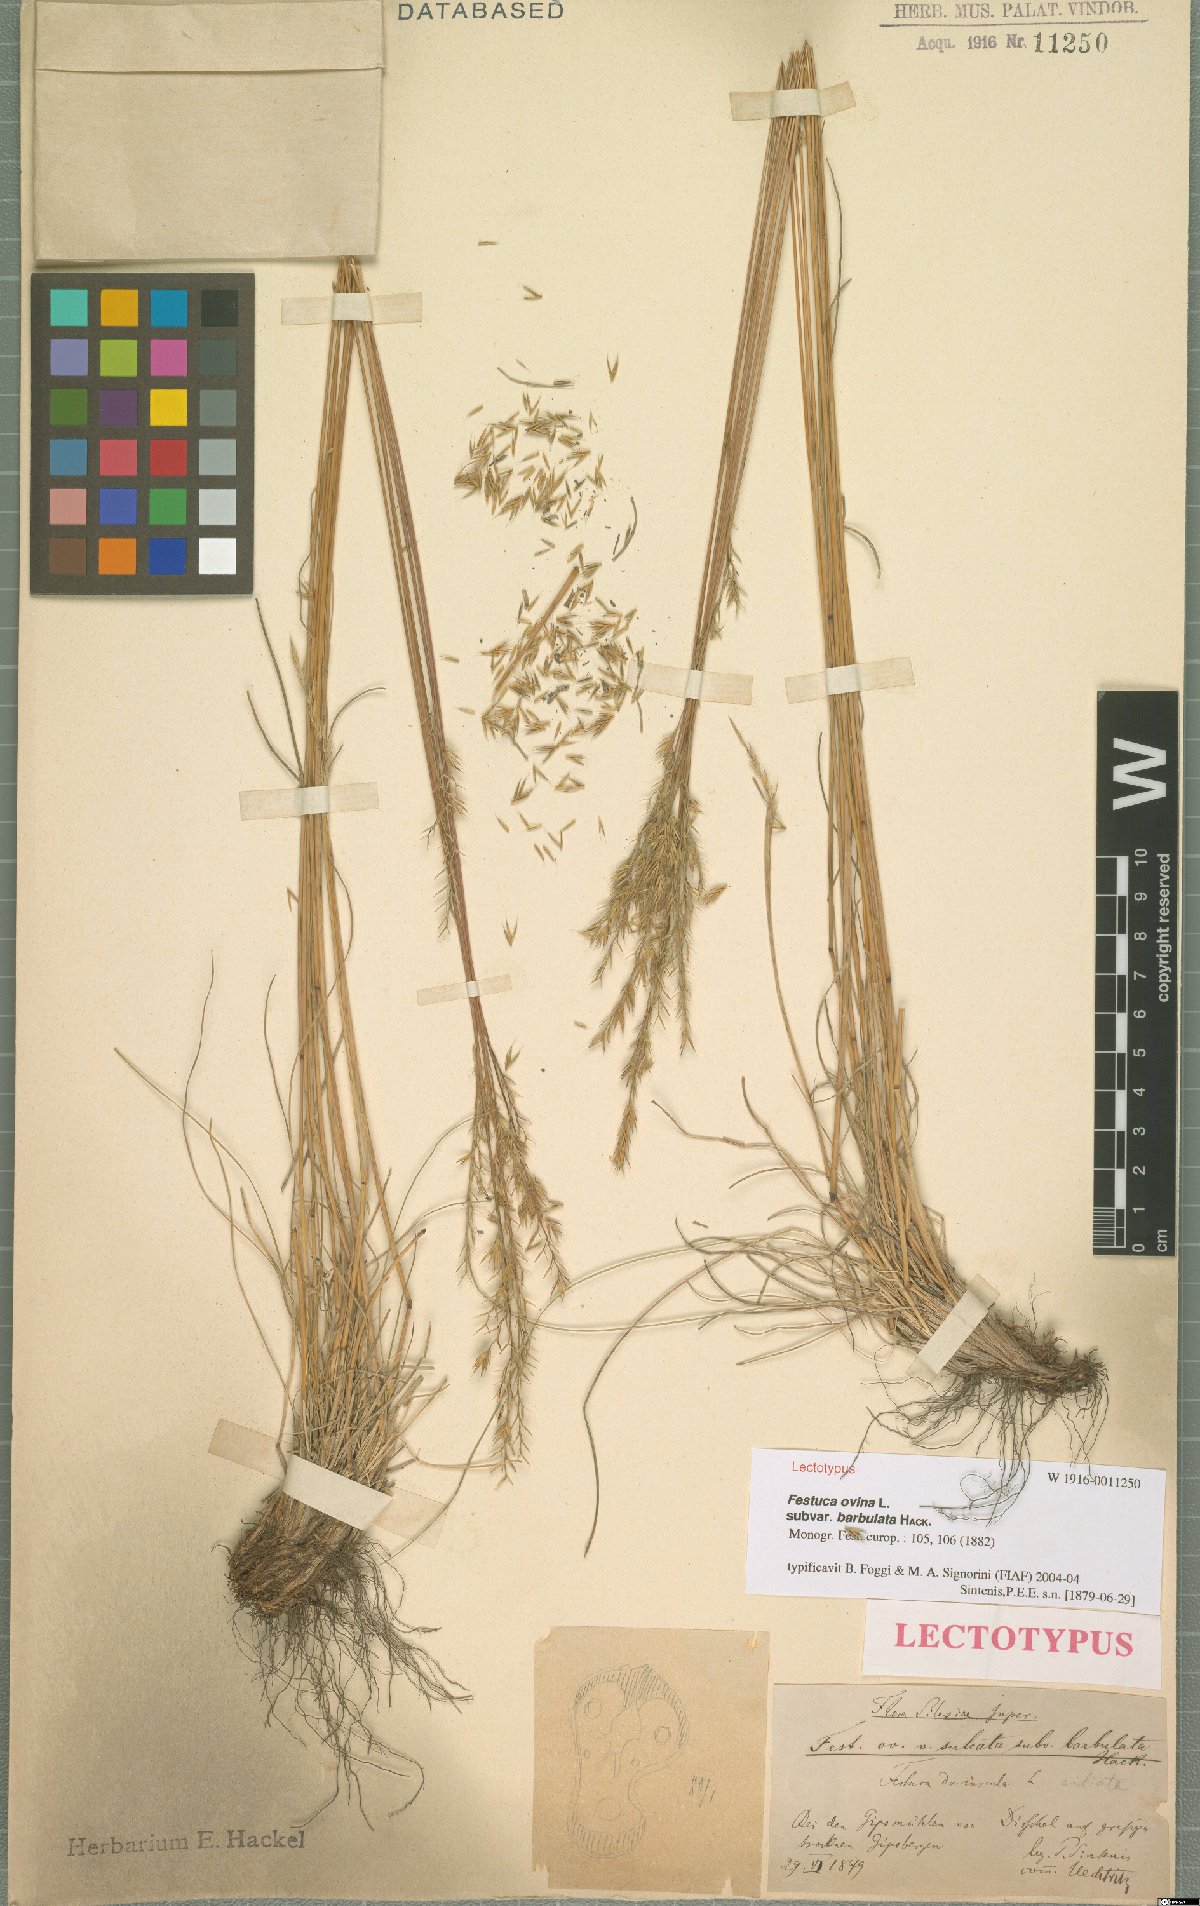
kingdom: Plantae
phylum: Tracheophyta
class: Liliopsida
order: Poales
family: Poaceae
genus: Festuca
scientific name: Festuca ovina
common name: Sheep fescue
